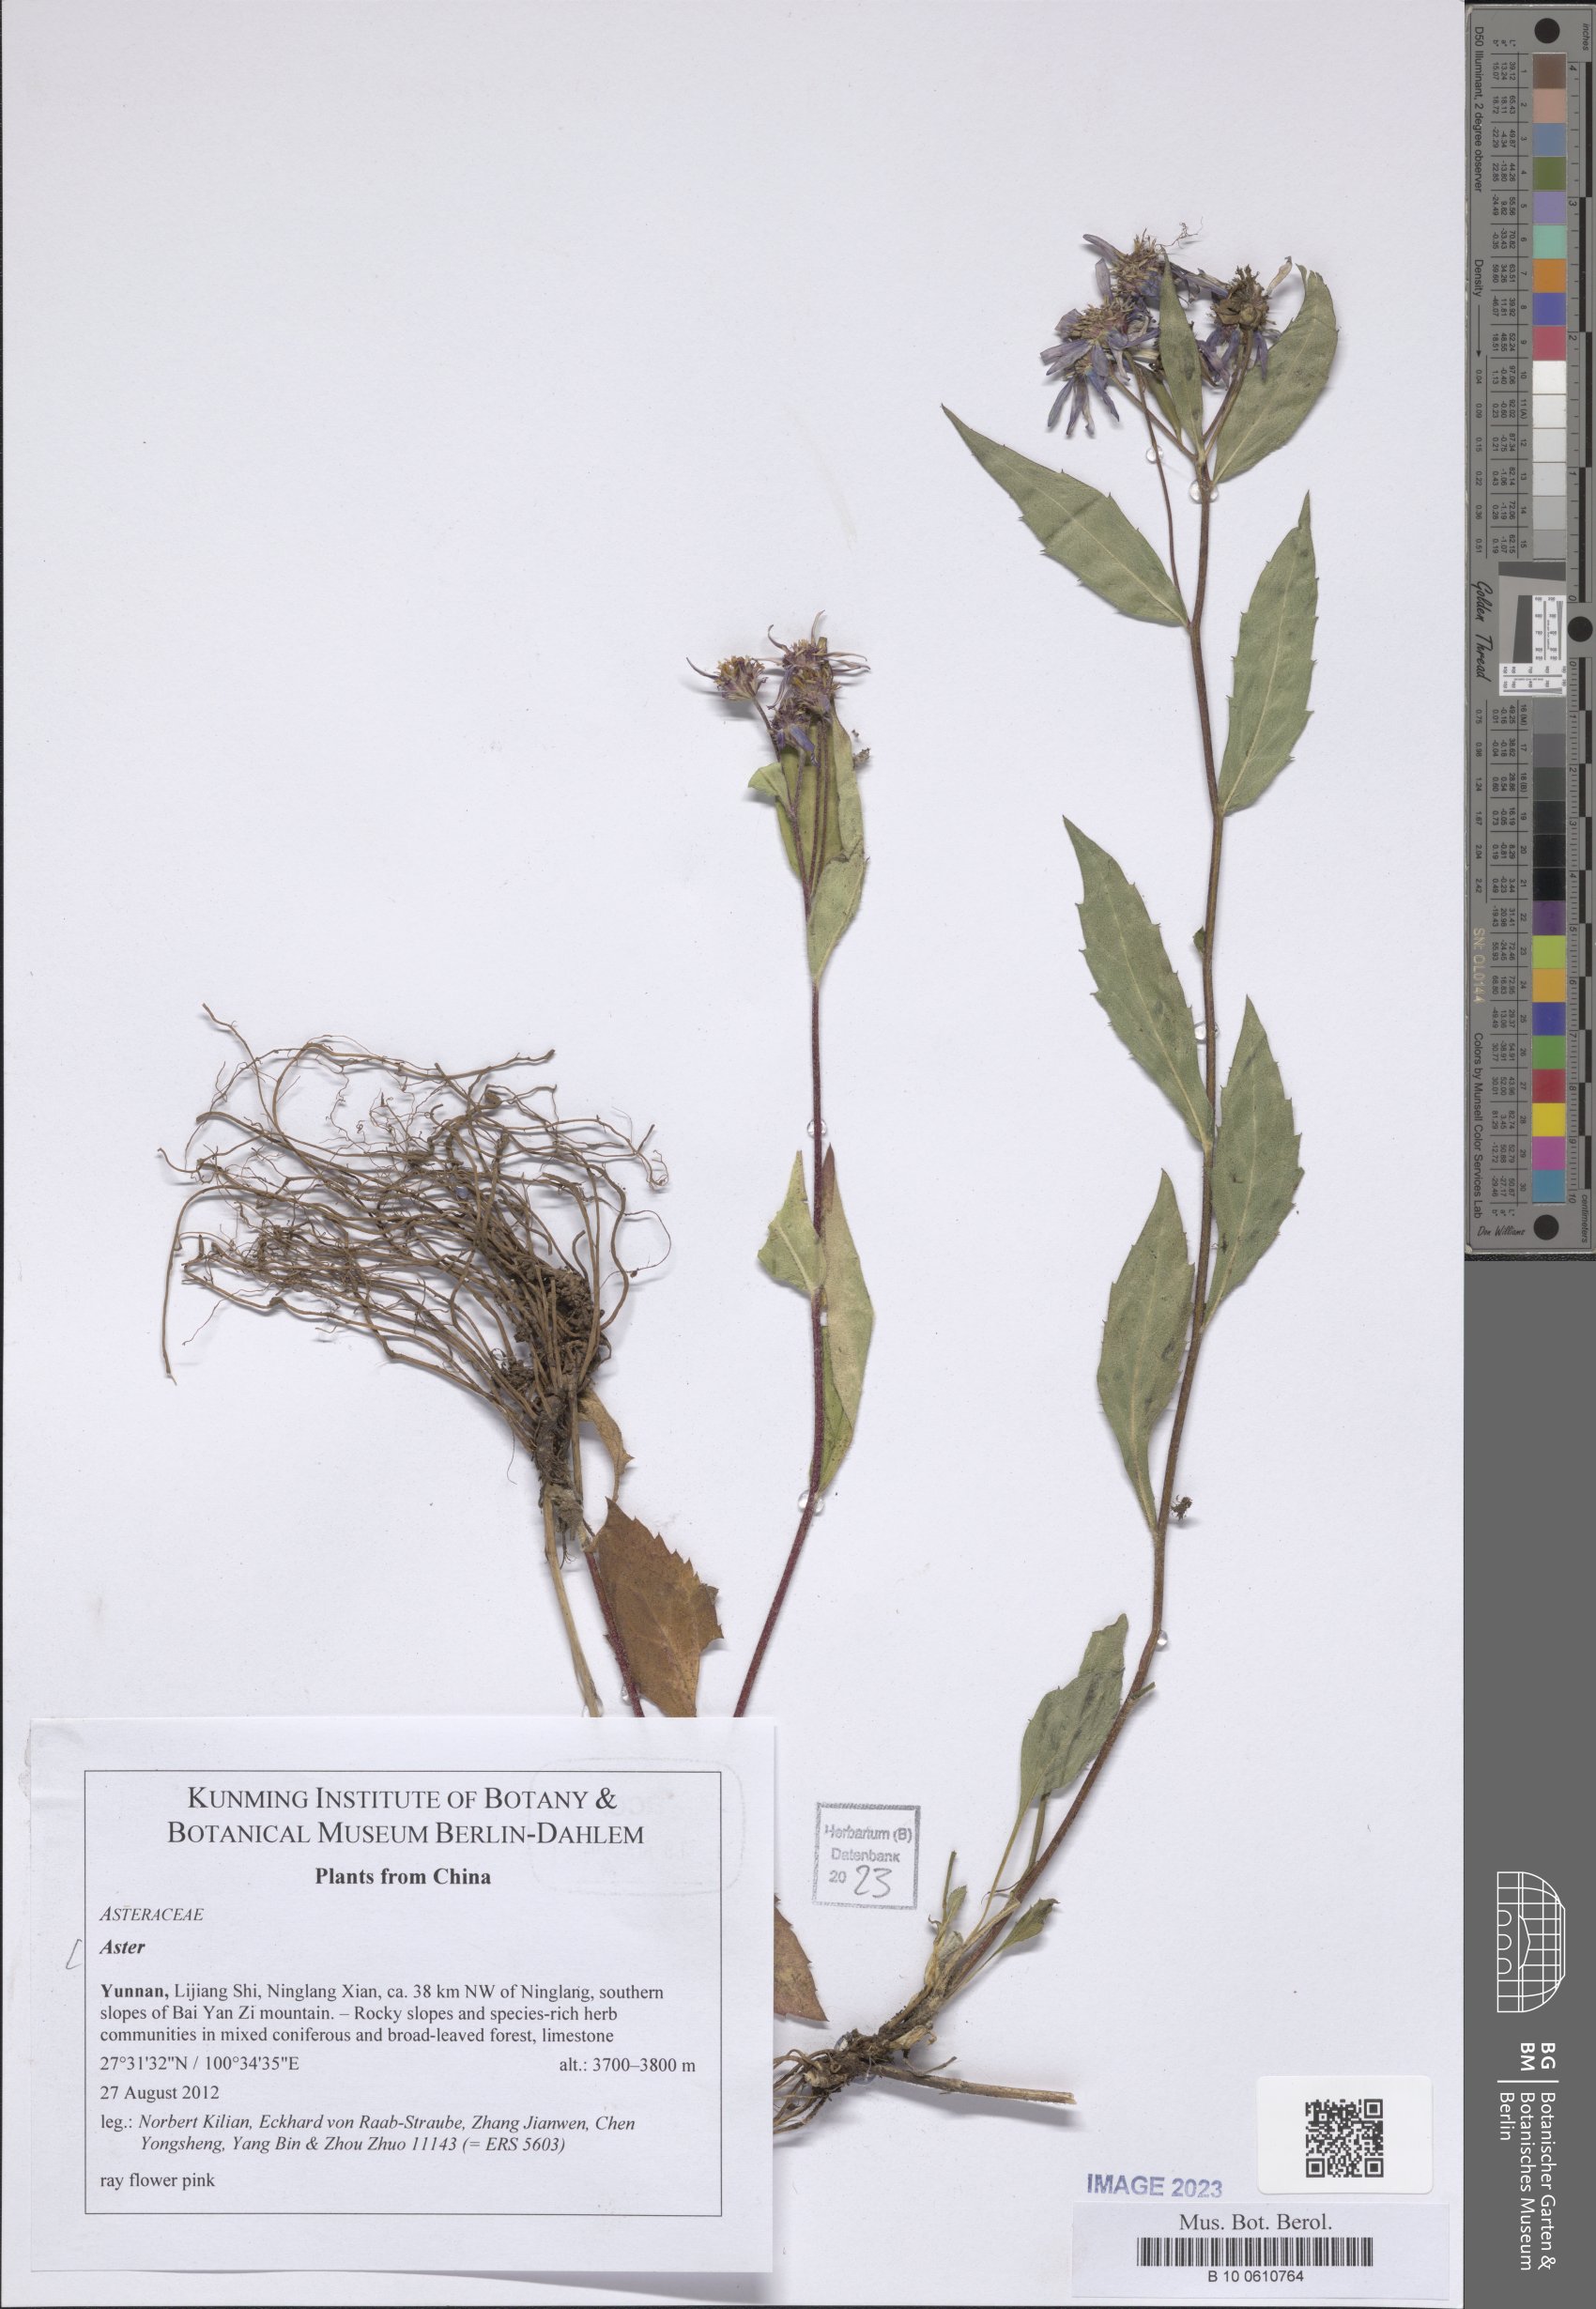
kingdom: Plantae
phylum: Tracheophyta
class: Magnoliopsida
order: Asterales
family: Asteraceae
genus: Aster
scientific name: Aster
